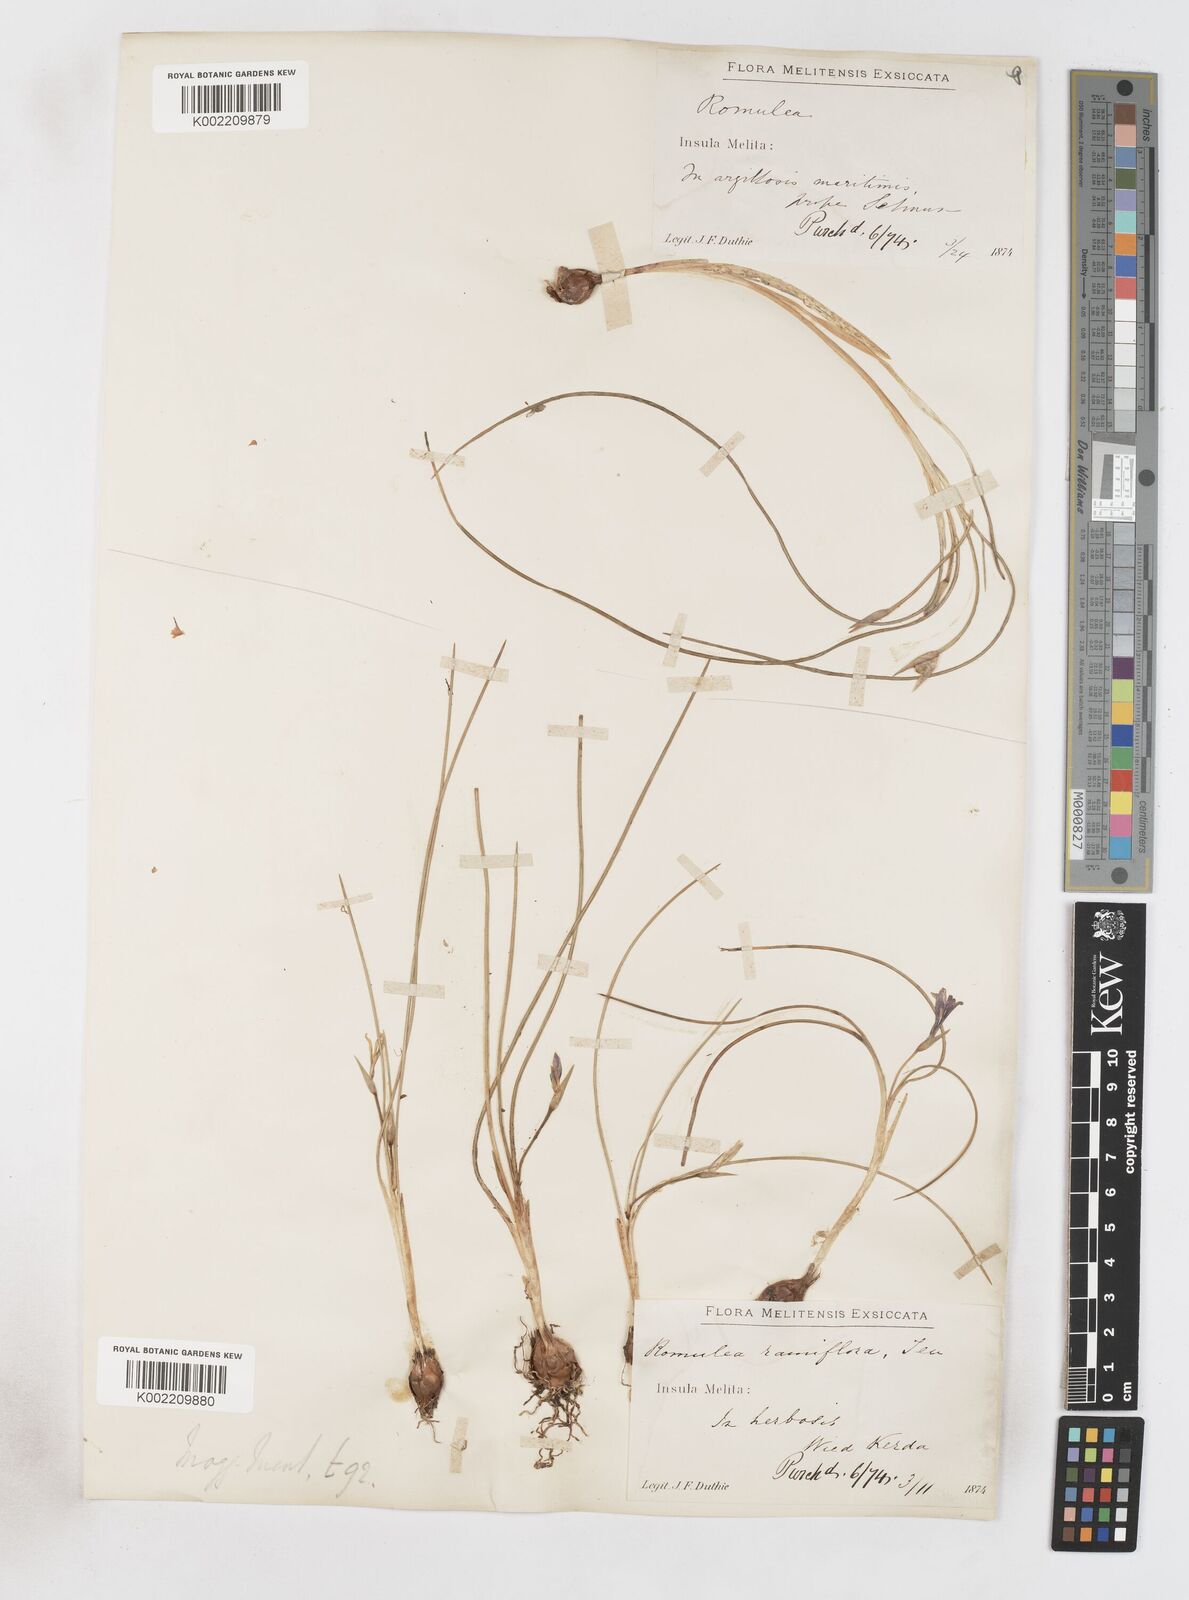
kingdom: Plantae
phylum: Tracheophyta
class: Liliopsida
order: Asparagales
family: Iridaceae
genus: Romulea
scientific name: Romulea melitensis
